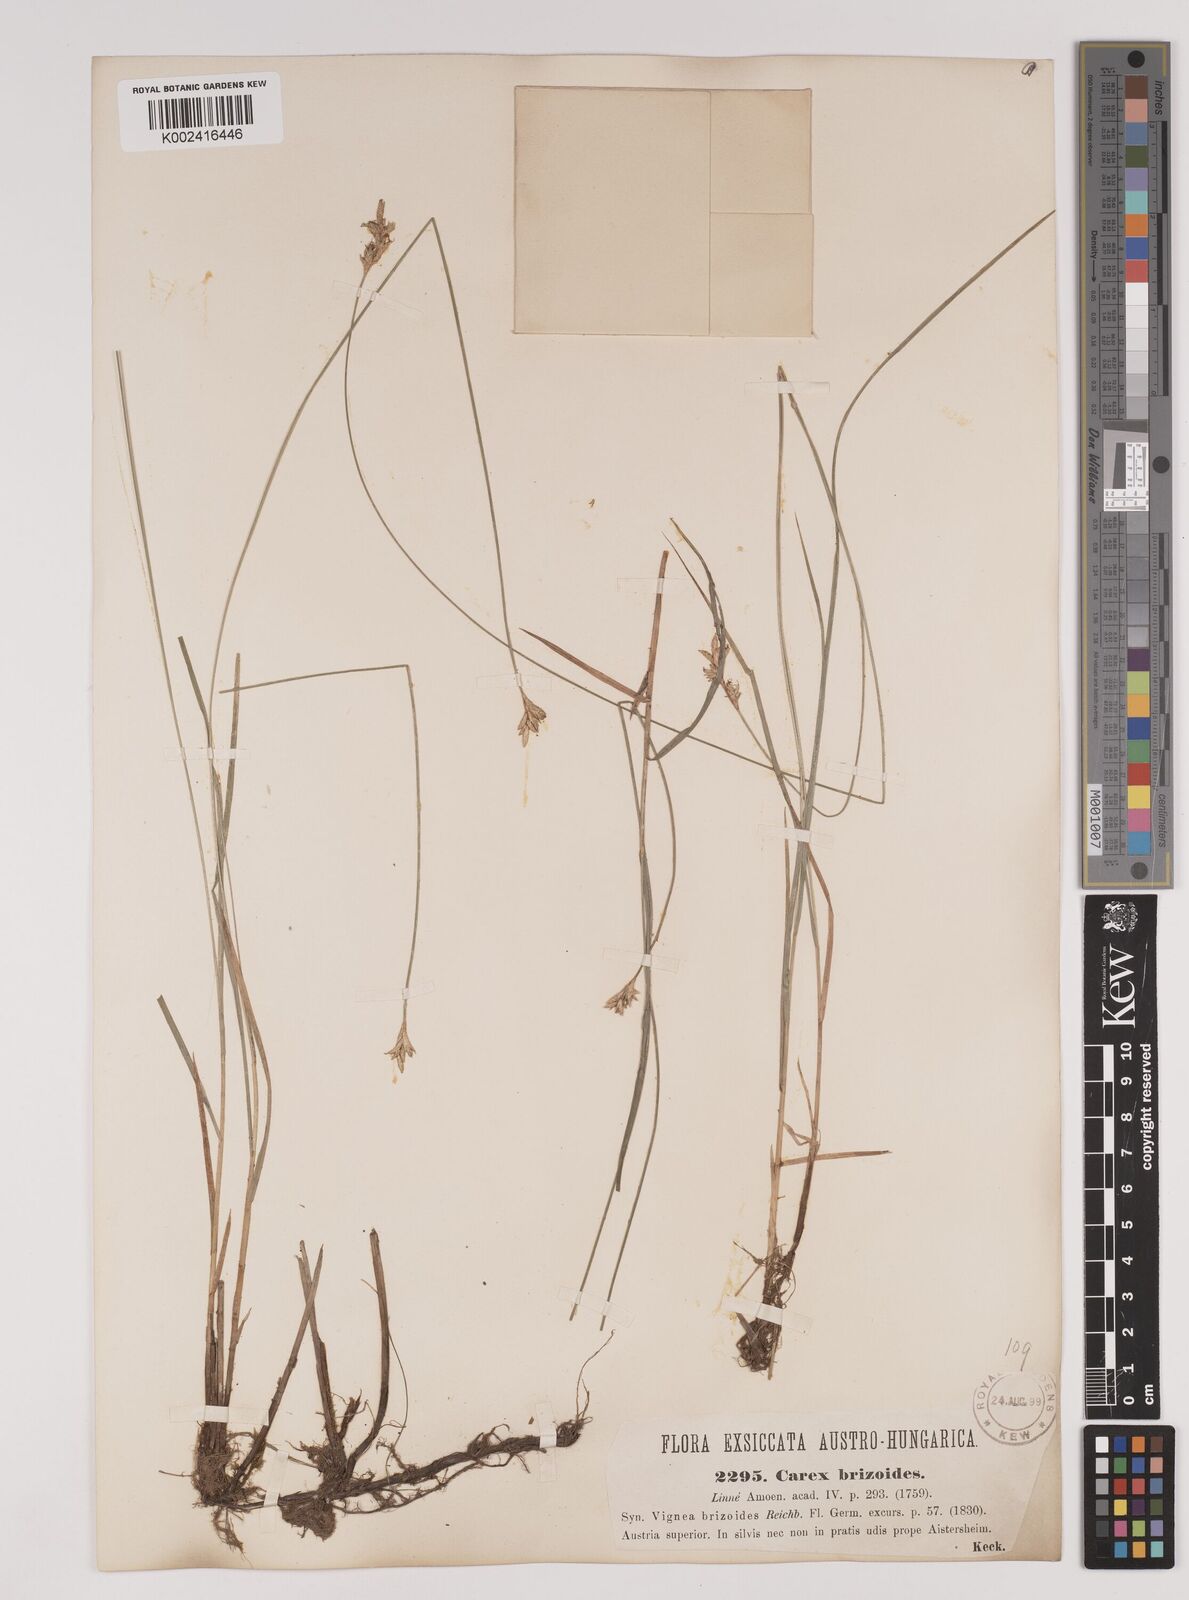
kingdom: Plantae
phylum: Tracheophyta
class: Liliopsida
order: Poales
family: Cyperaceae
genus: Carex
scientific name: Carex brizoides
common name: Quaking-grass sedge
